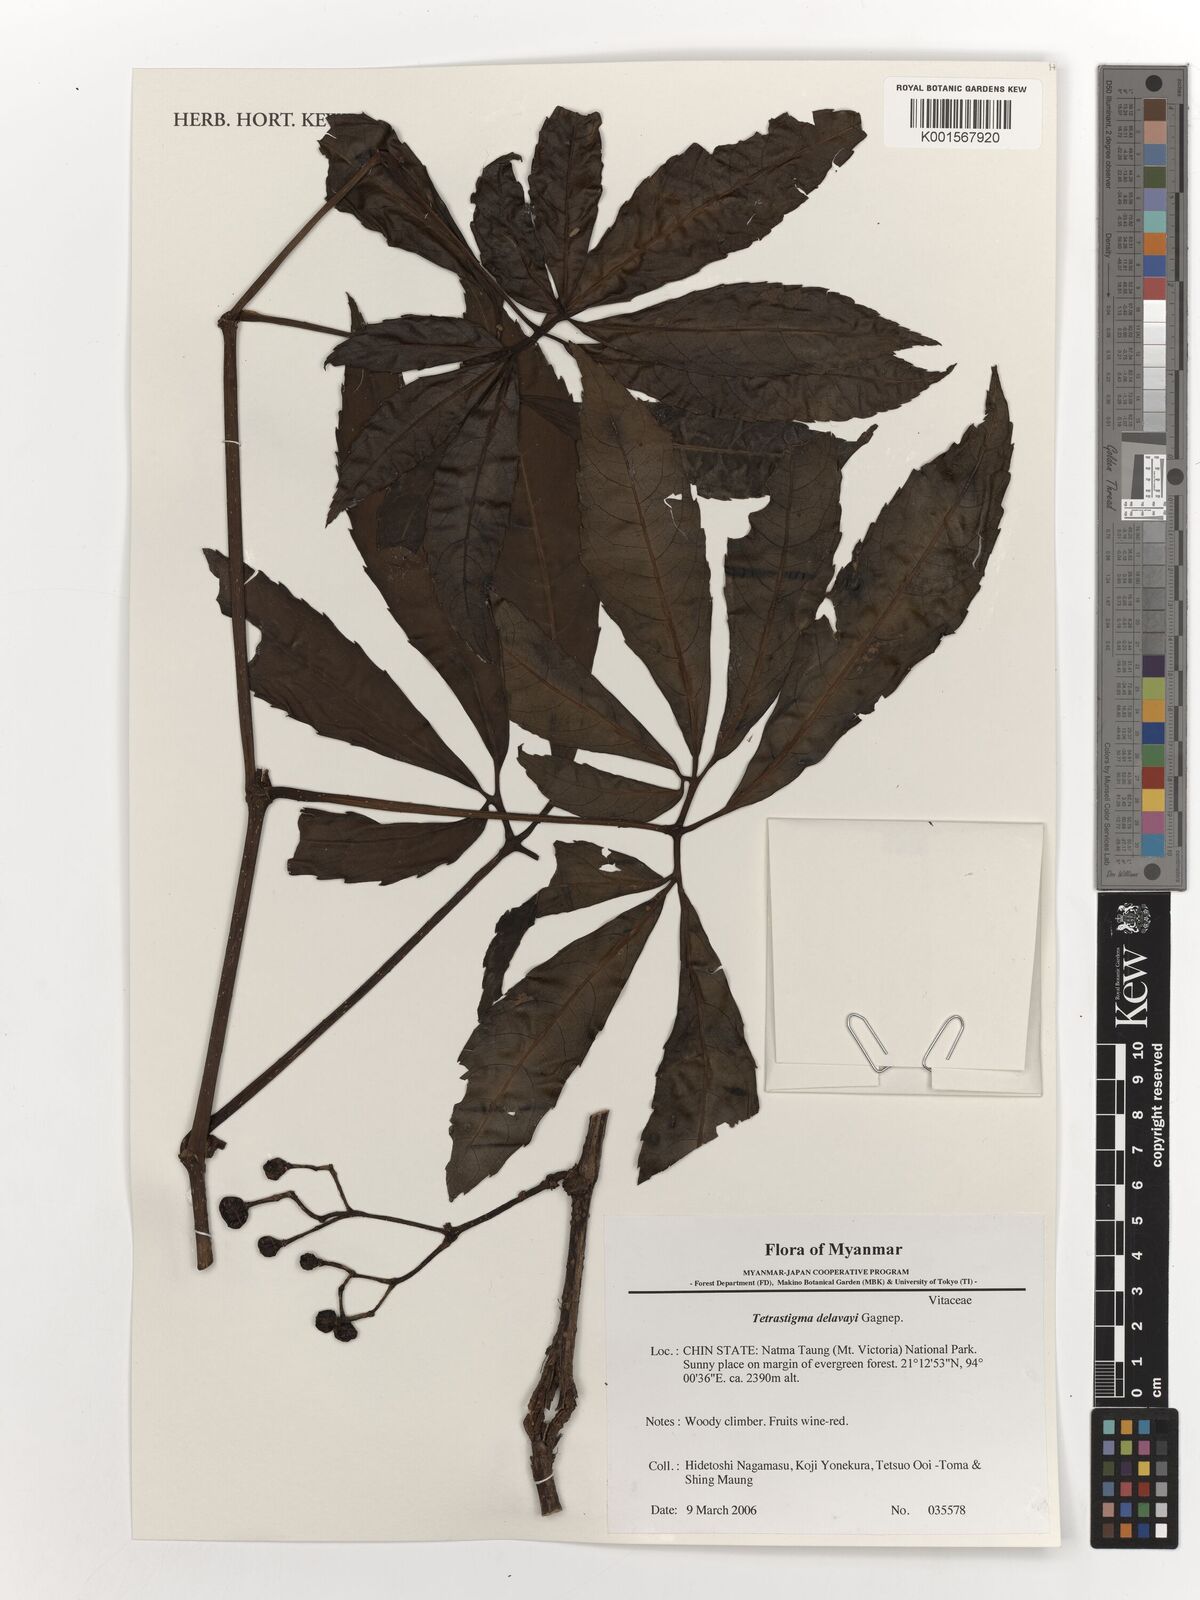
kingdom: Plantae
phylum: Tracheophyta
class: Magnoliopsida
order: Vitales
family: Vitaceae
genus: Tetrastigma
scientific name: Tetrastigma delavayi
